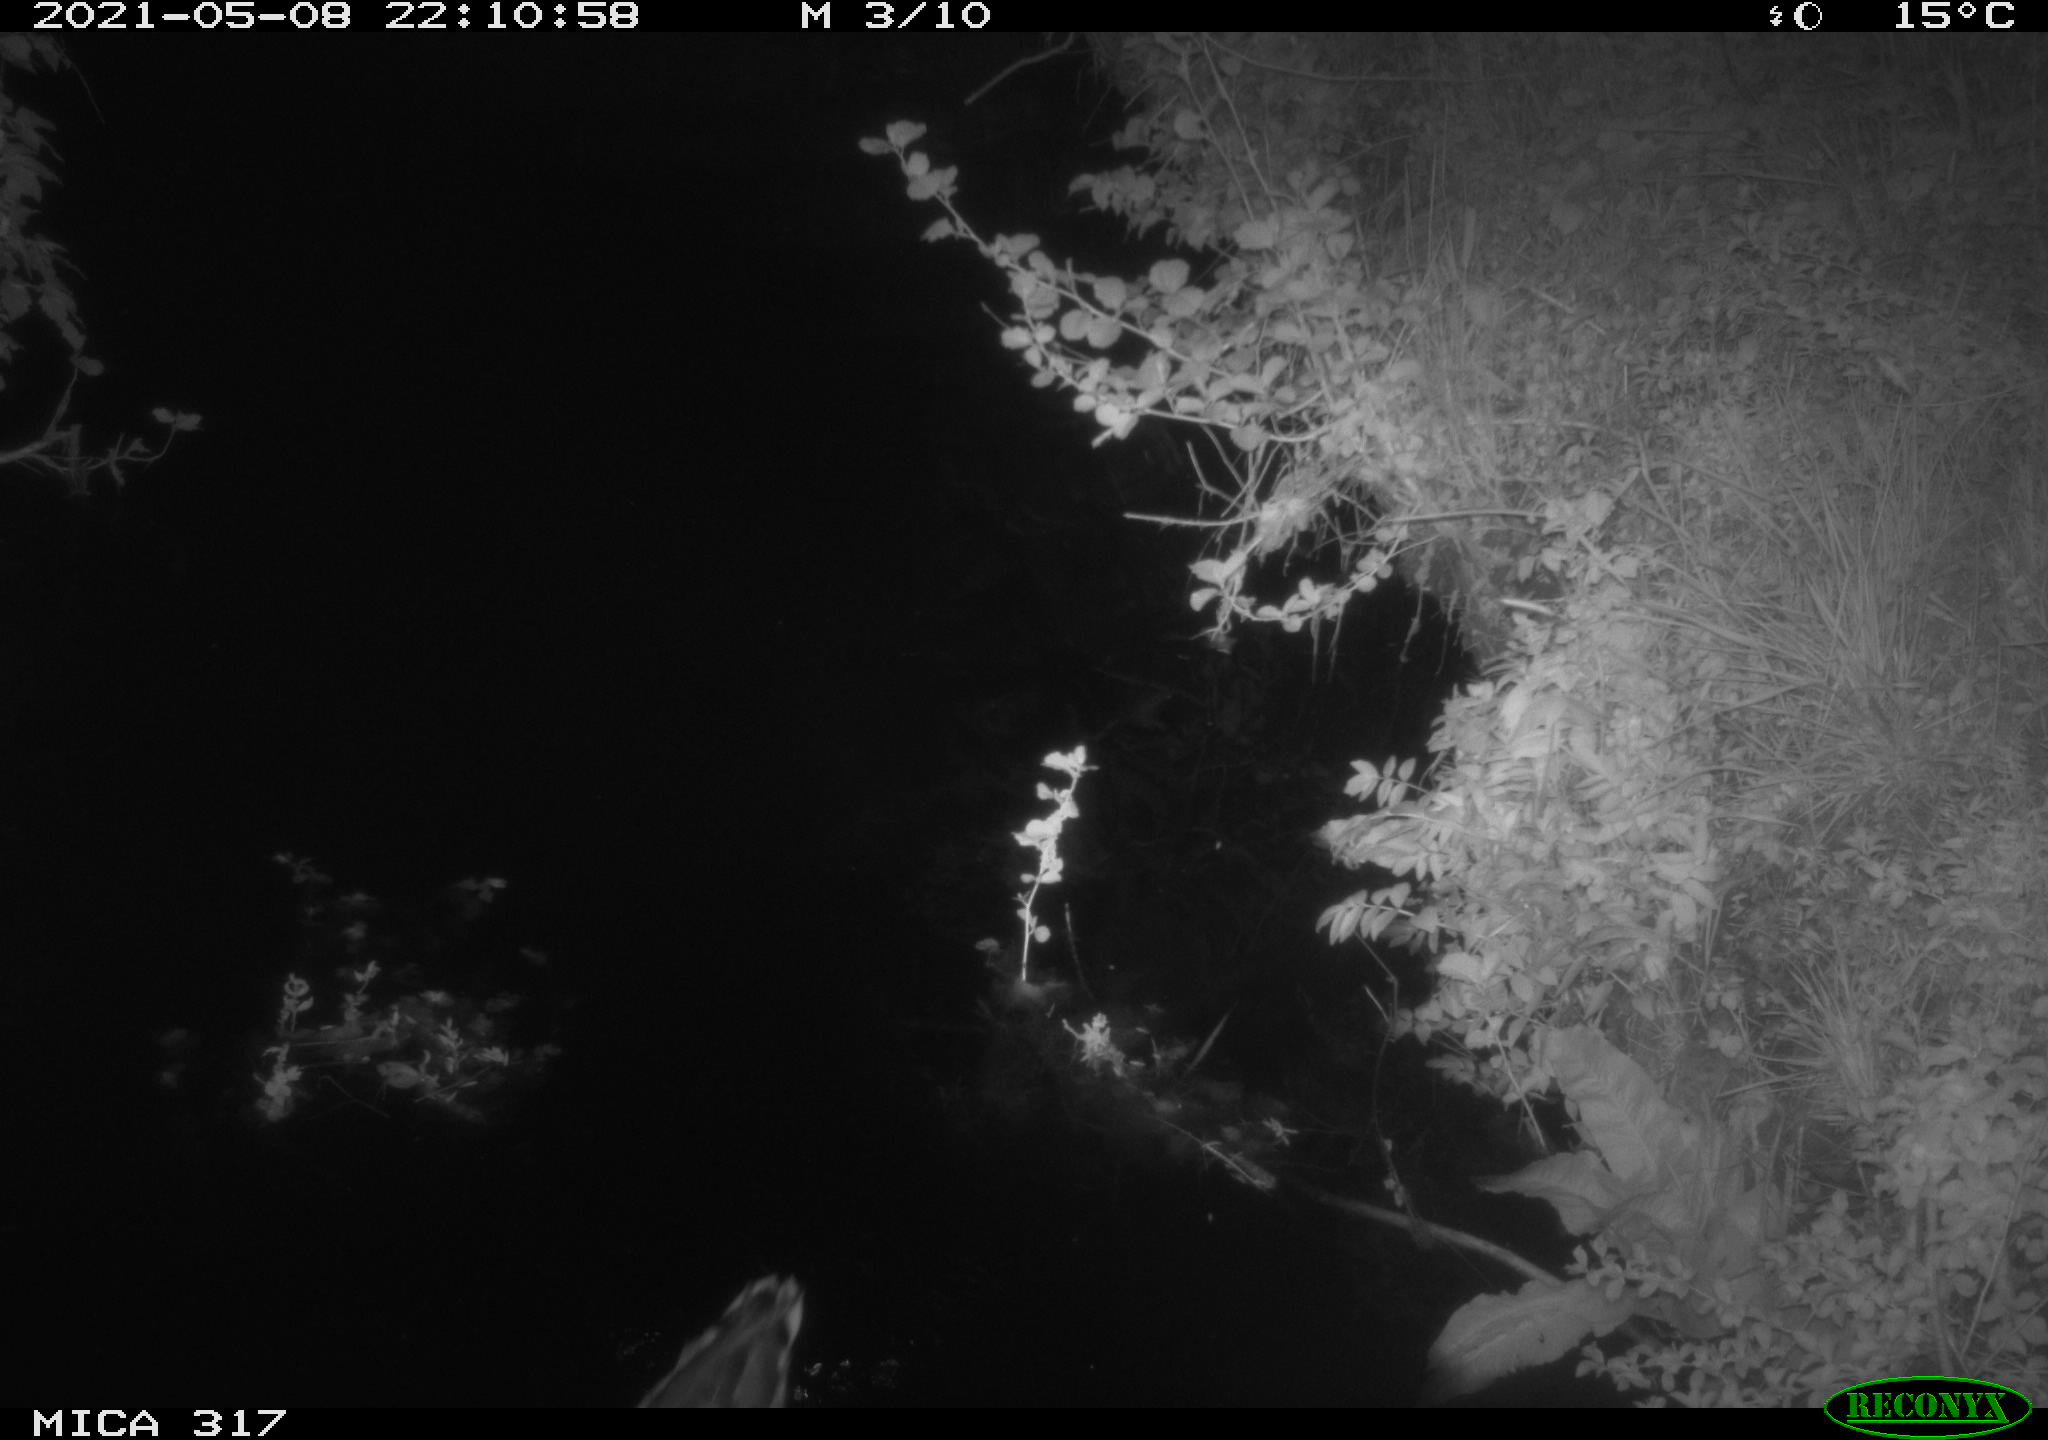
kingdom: Animalia
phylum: Chordata
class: Aves
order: Anseriformes
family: Anatidae
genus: Anas
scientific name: Anas
